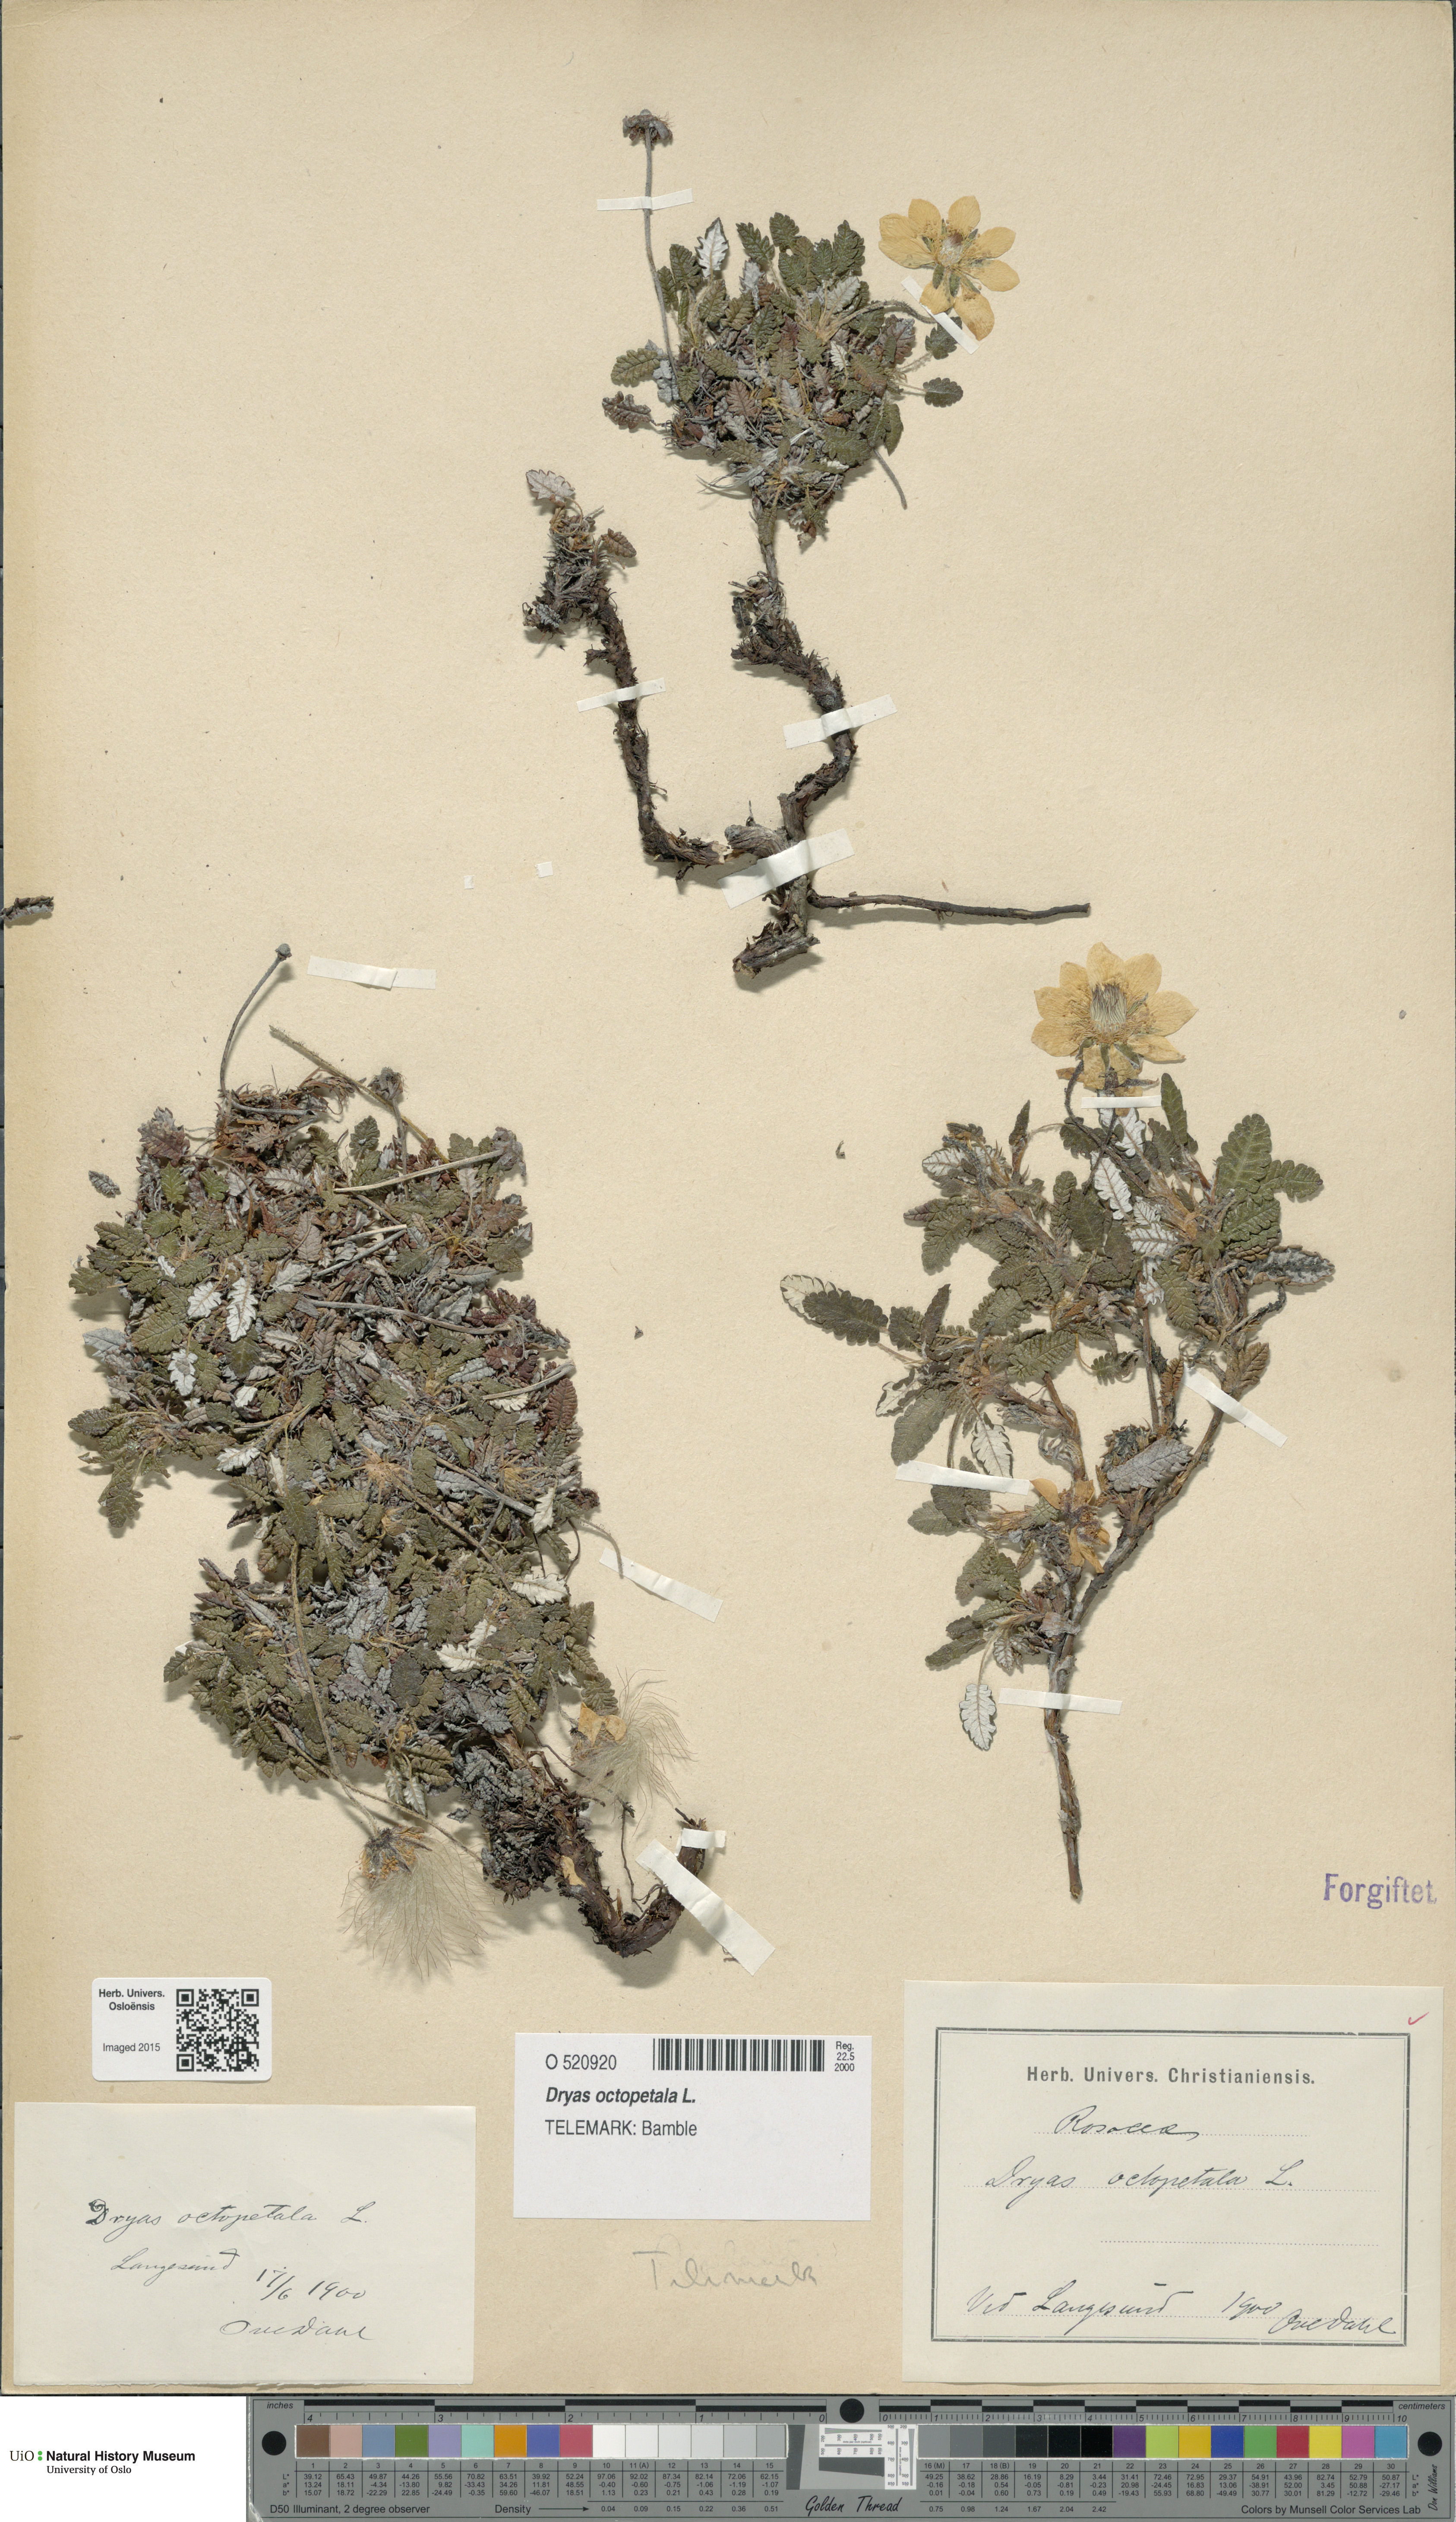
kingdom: Plantae
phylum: Tracheophyta
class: Magnoliopsida
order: Rosales
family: Rosaceae
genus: Dryas
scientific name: Dryas octopetala
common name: Eight-petal mountain-avens
